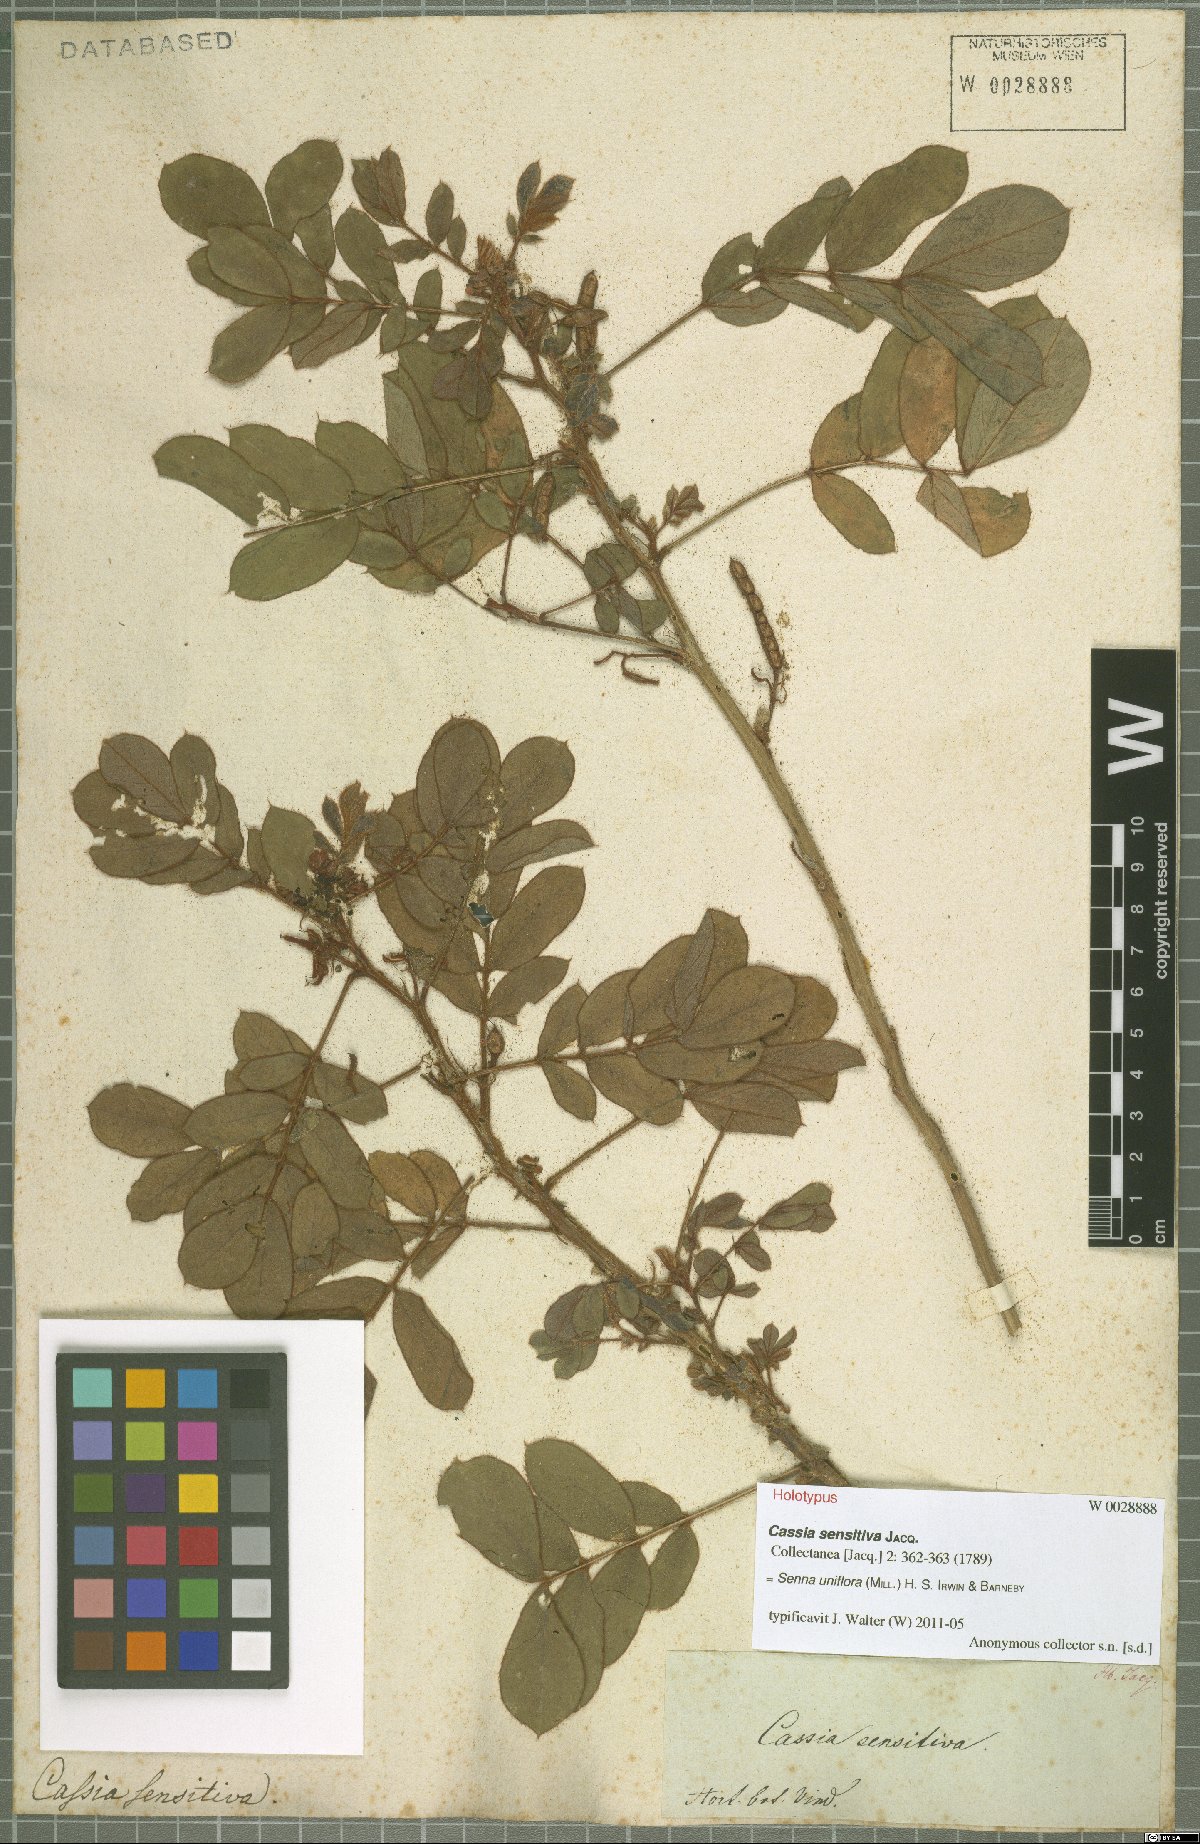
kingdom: Plantae
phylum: Tracheophyta
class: Magnoliopsida
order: Fabales
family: Fabaceae
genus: Senna
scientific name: Senna uniflora
